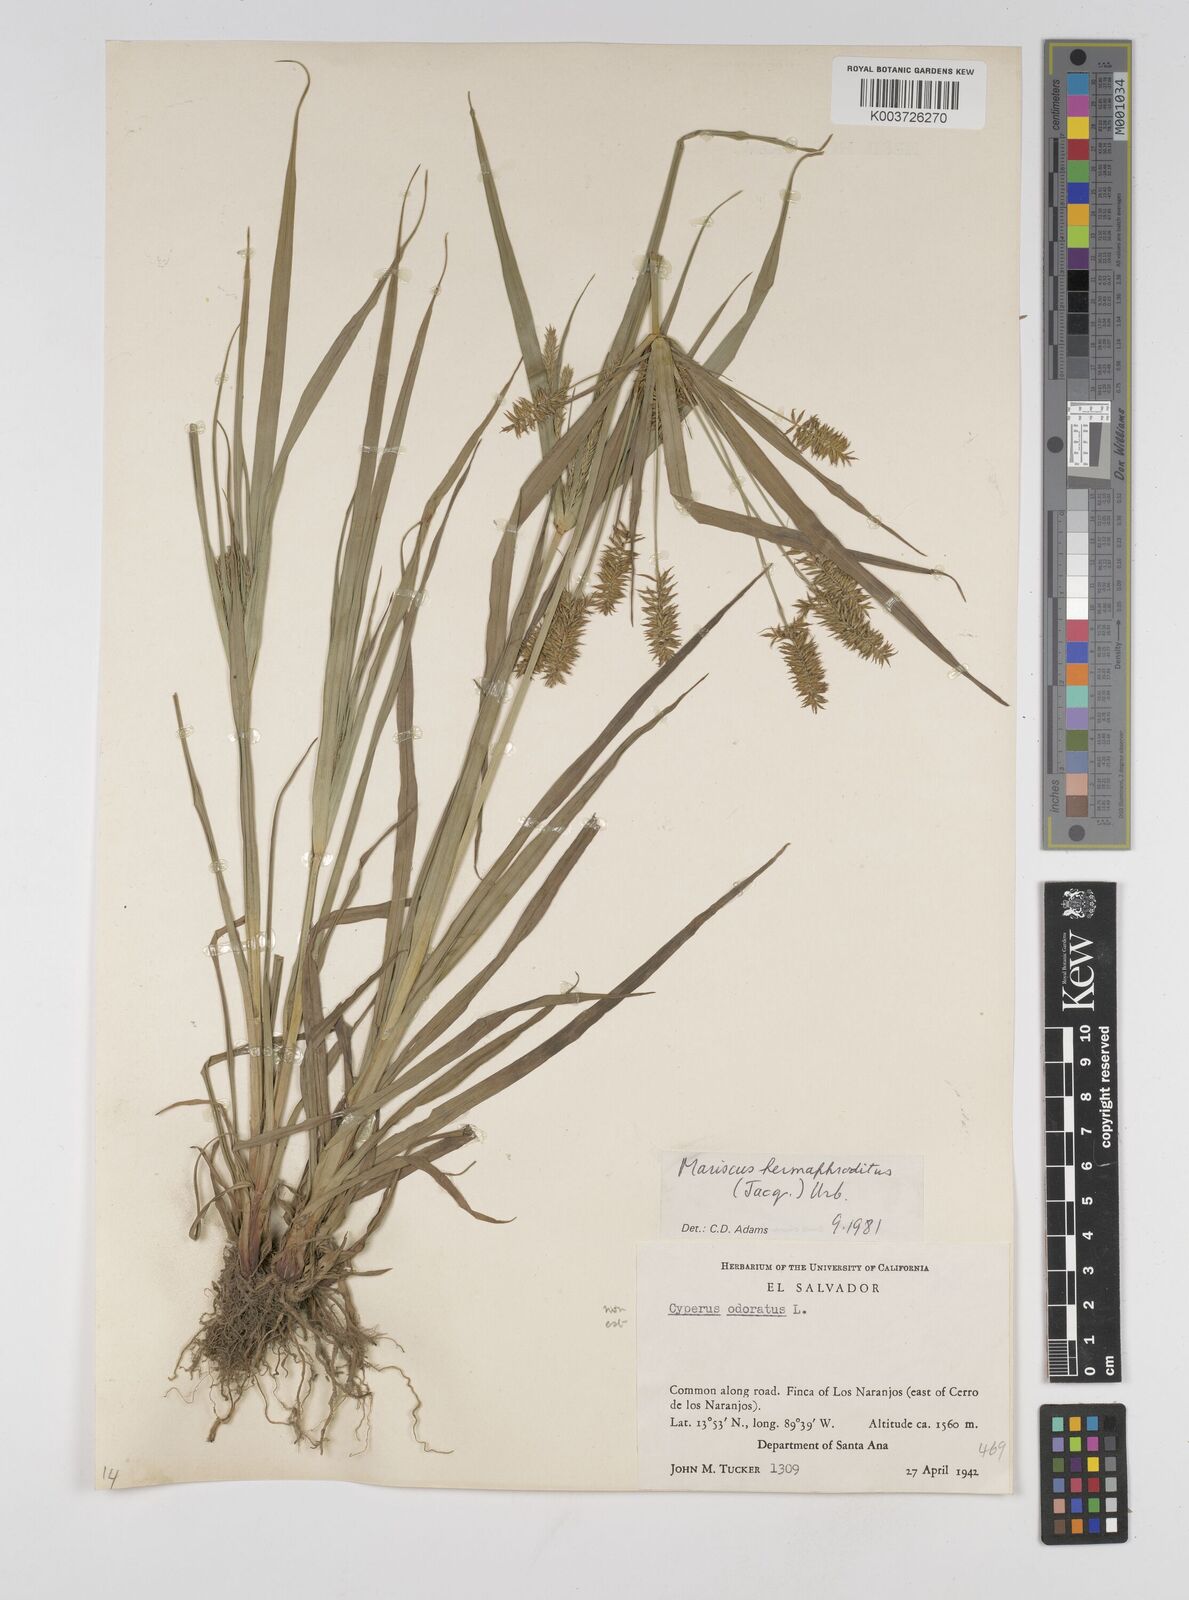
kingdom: Plantae
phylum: Tracheophyta
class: Liliopsida
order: Poales
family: Cyperaceae
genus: Cyperus
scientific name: Cyperus hermaphroditus
